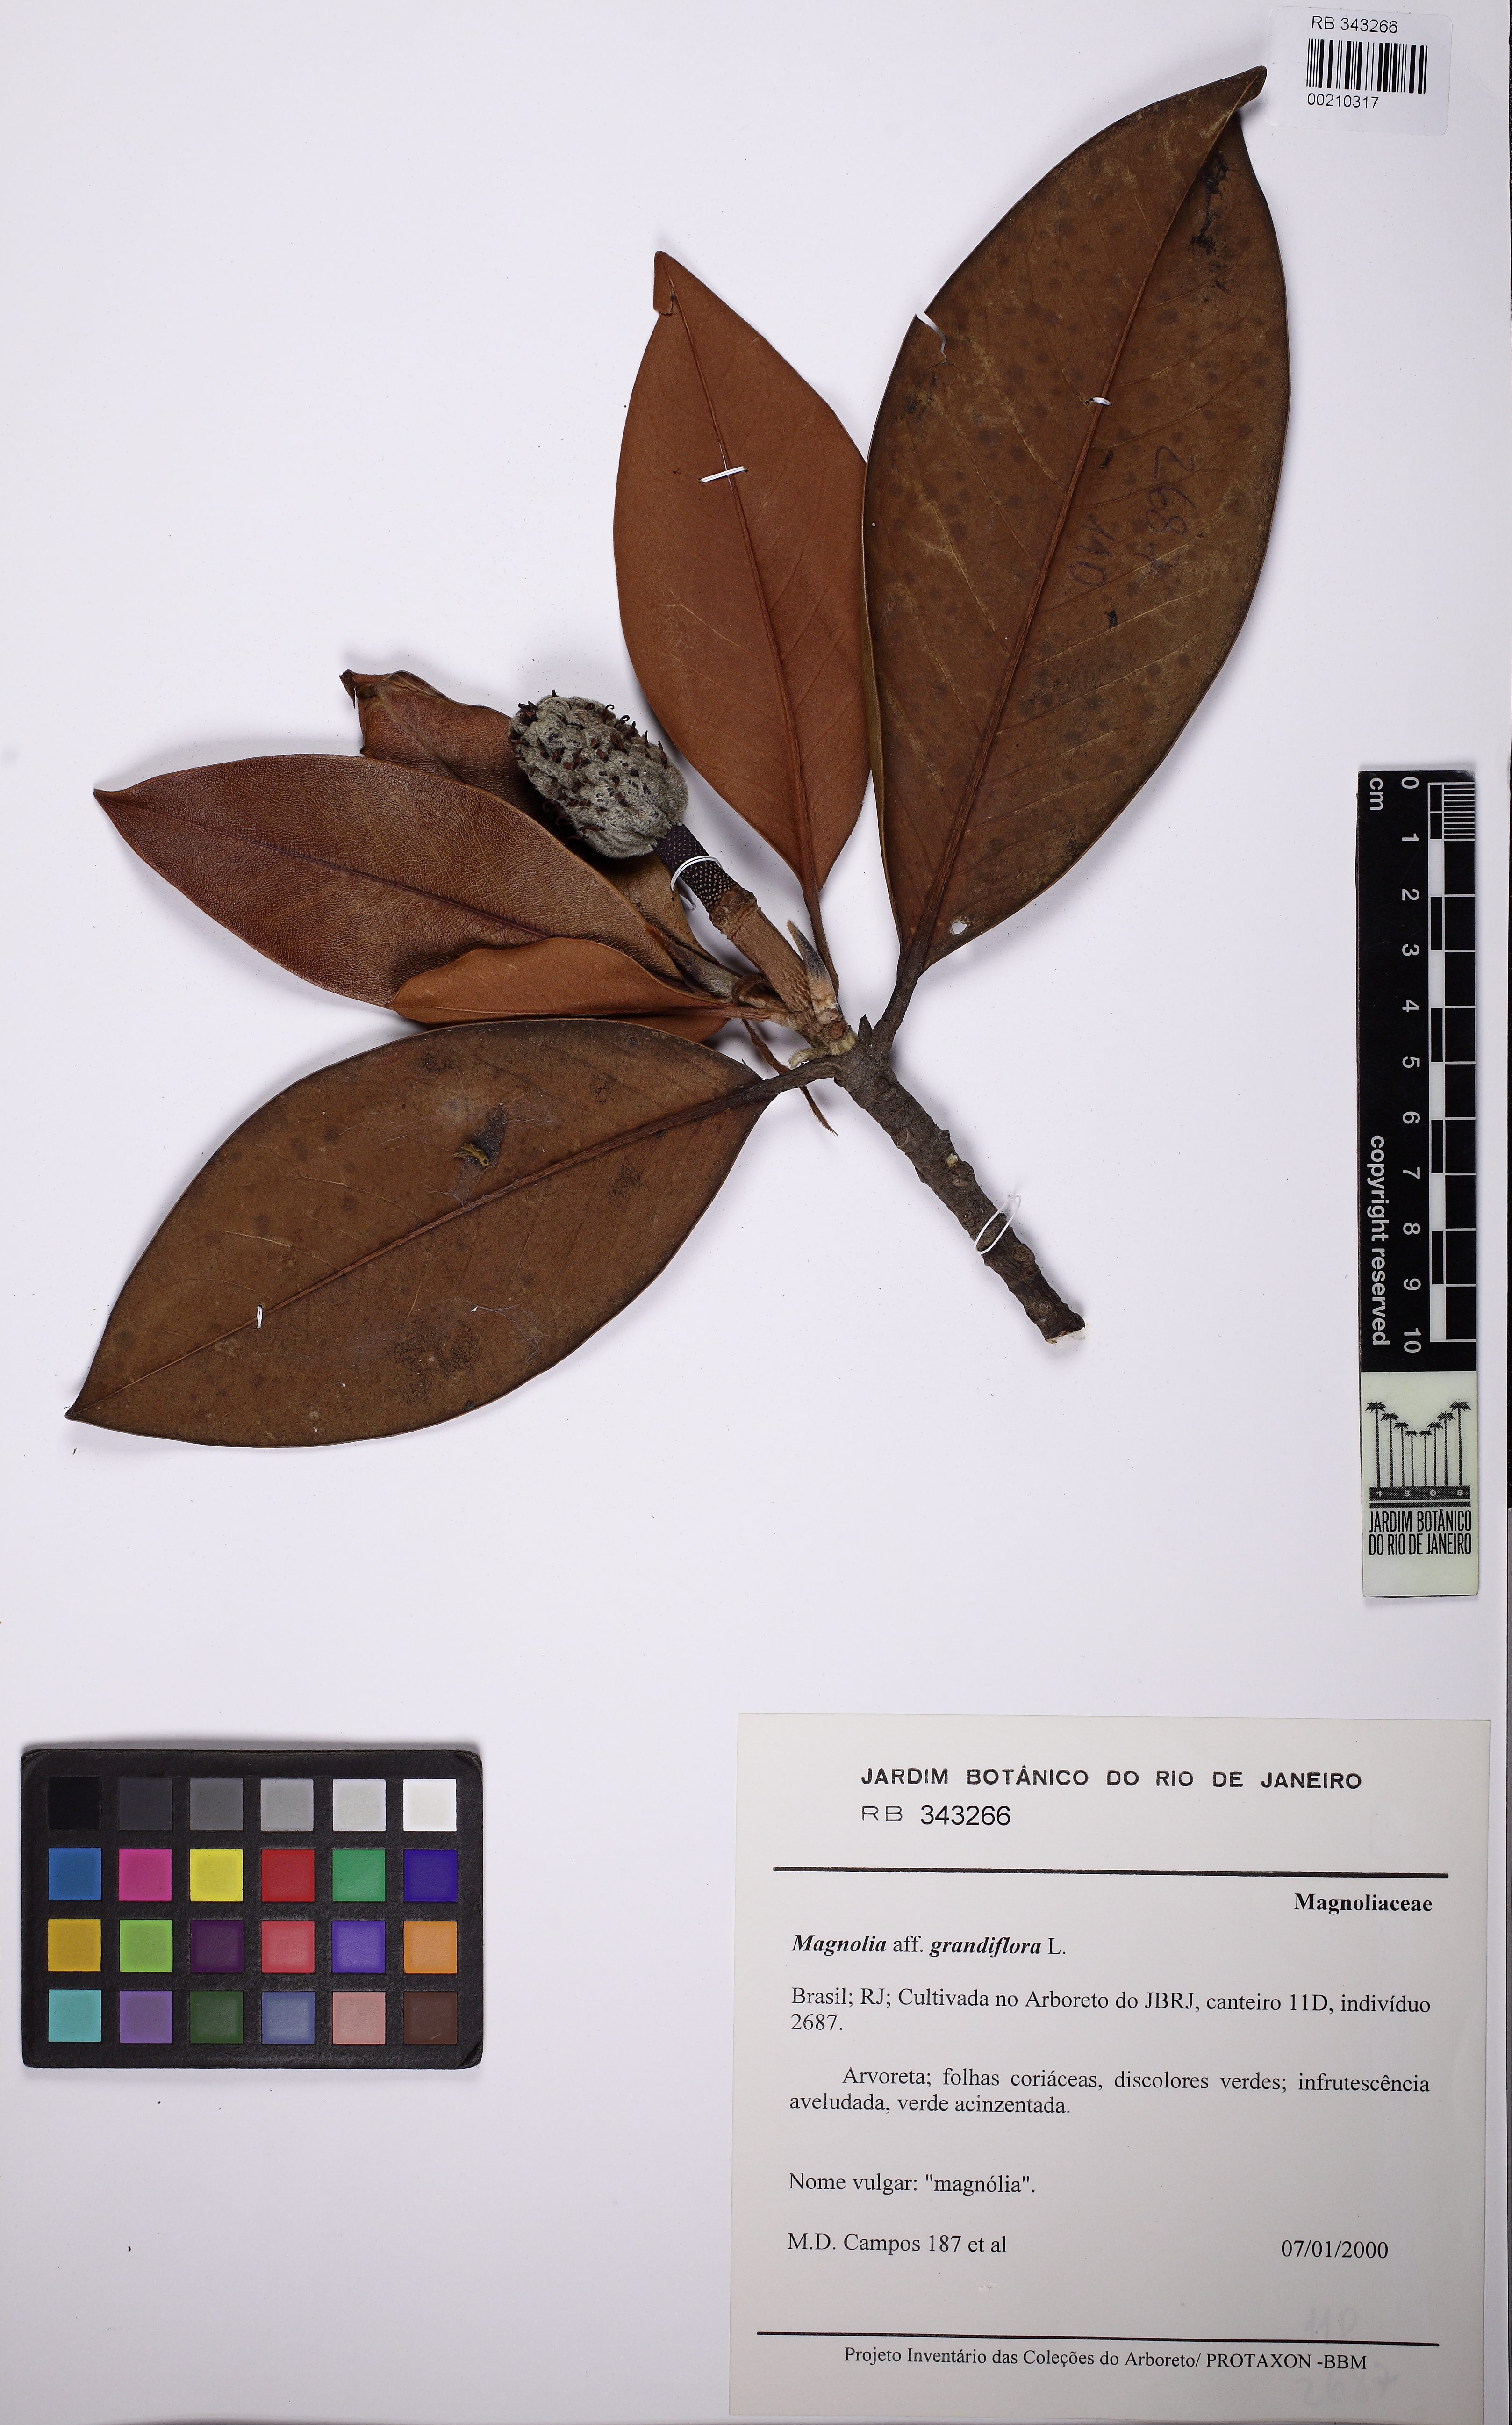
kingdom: Plantae
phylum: Tracheophyta
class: Magnoliopsida
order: Magnoliales
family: Magnoliaceae
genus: Magnolia
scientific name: Magnolia grandiflora
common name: Southern magnolia
